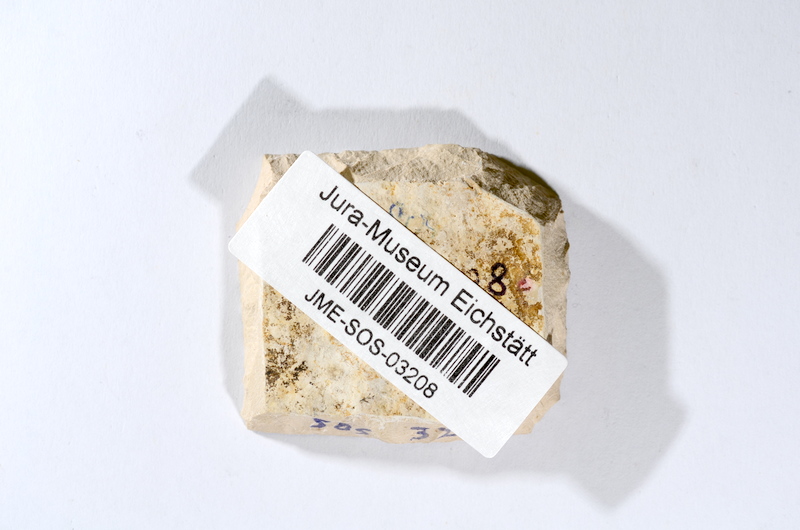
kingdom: Animalia
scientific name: Animalia
